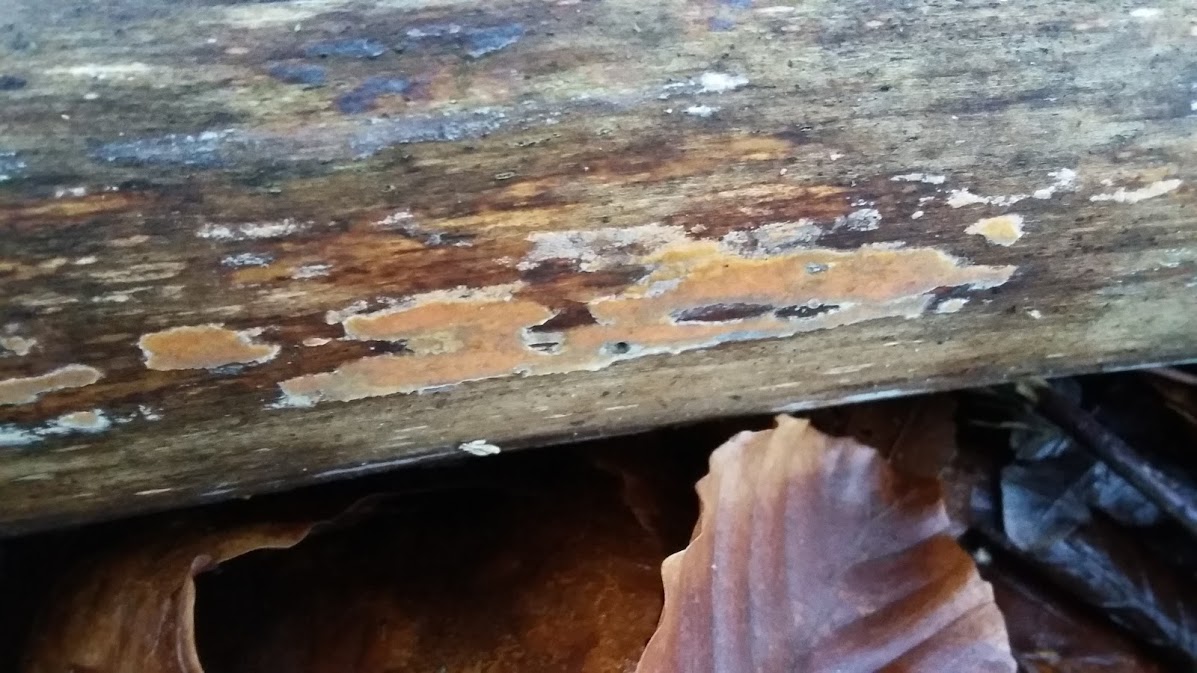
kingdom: Fungi
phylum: Basidiomycota
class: Agaricomycetes
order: Russulales
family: Peniophoraceae
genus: Peniophora
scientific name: Peniophora incarnata
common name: laksefarvet voksskind
